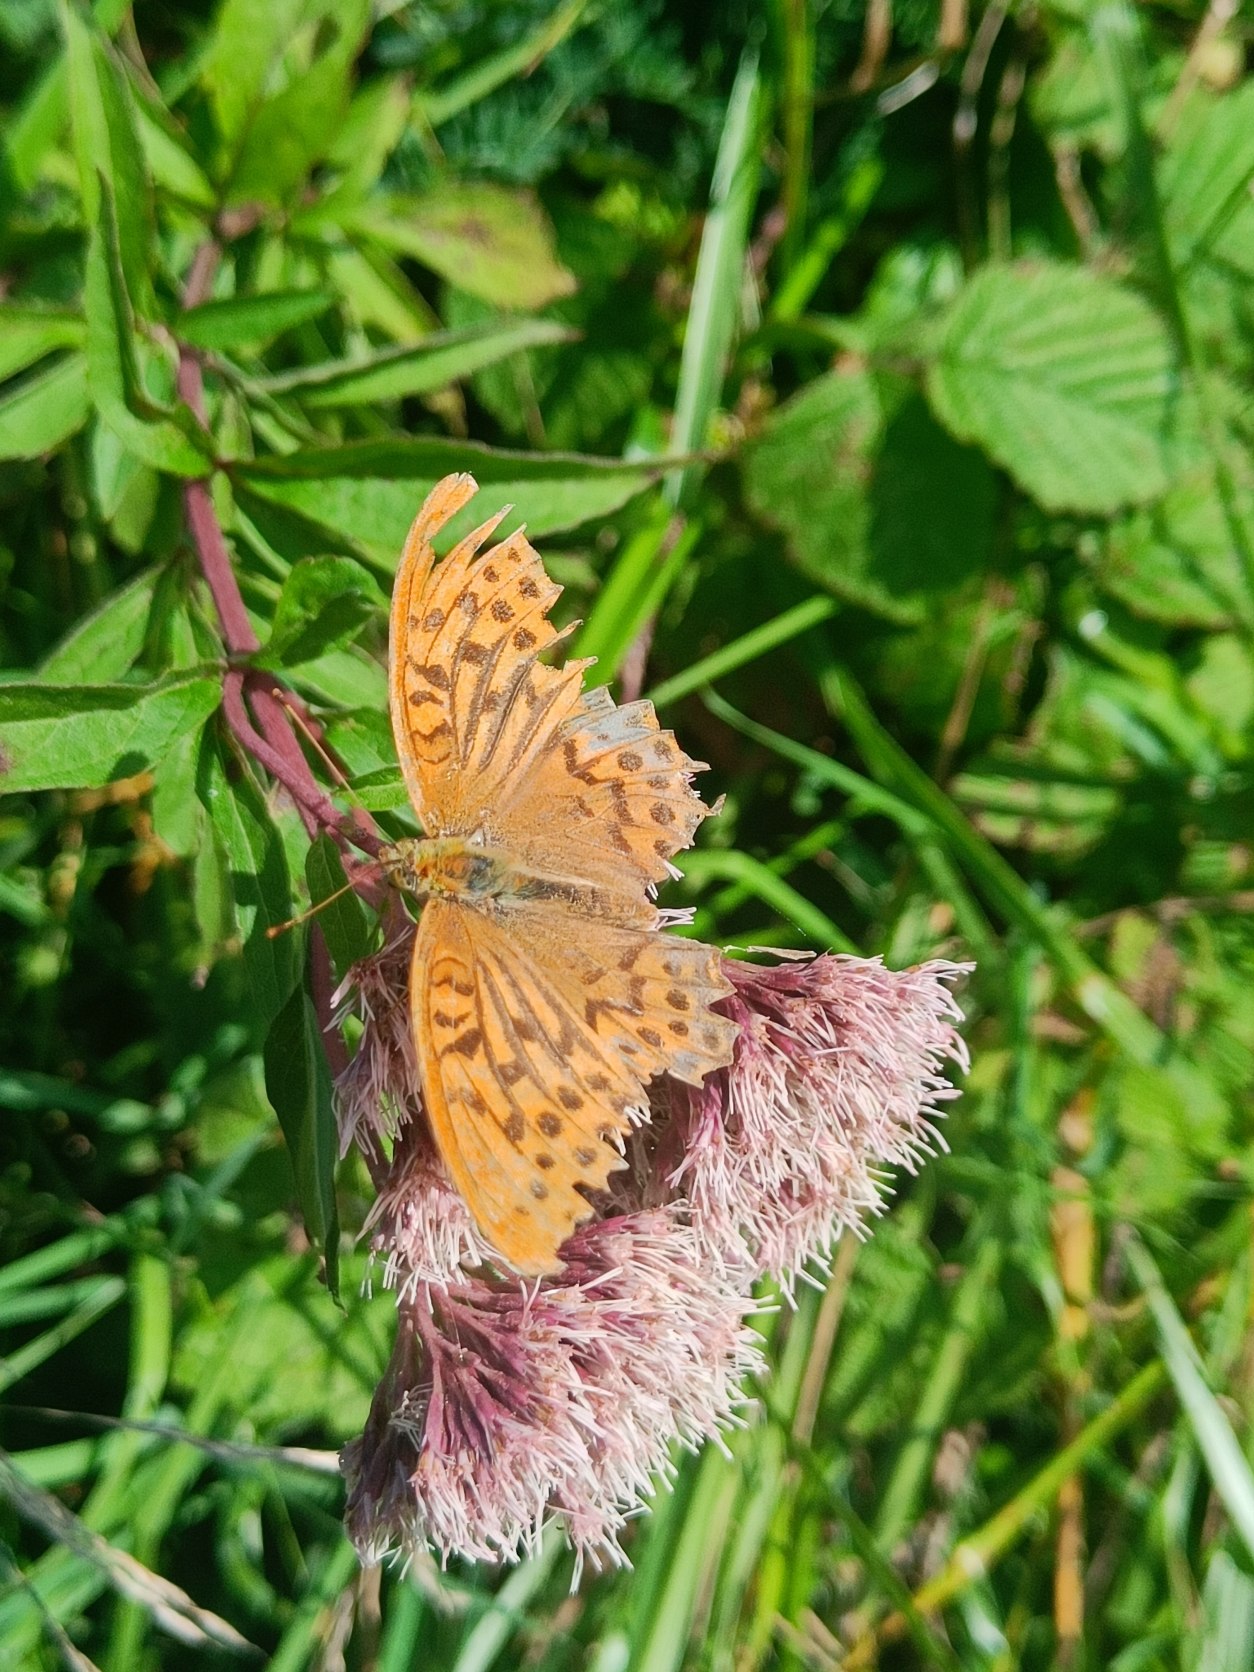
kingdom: Animalia
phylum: Arthropoda
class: Insecta
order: Lepidoptera
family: Nymphalidae
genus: Argynnis
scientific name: Argynnis paphia
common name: Kejserkåbe
